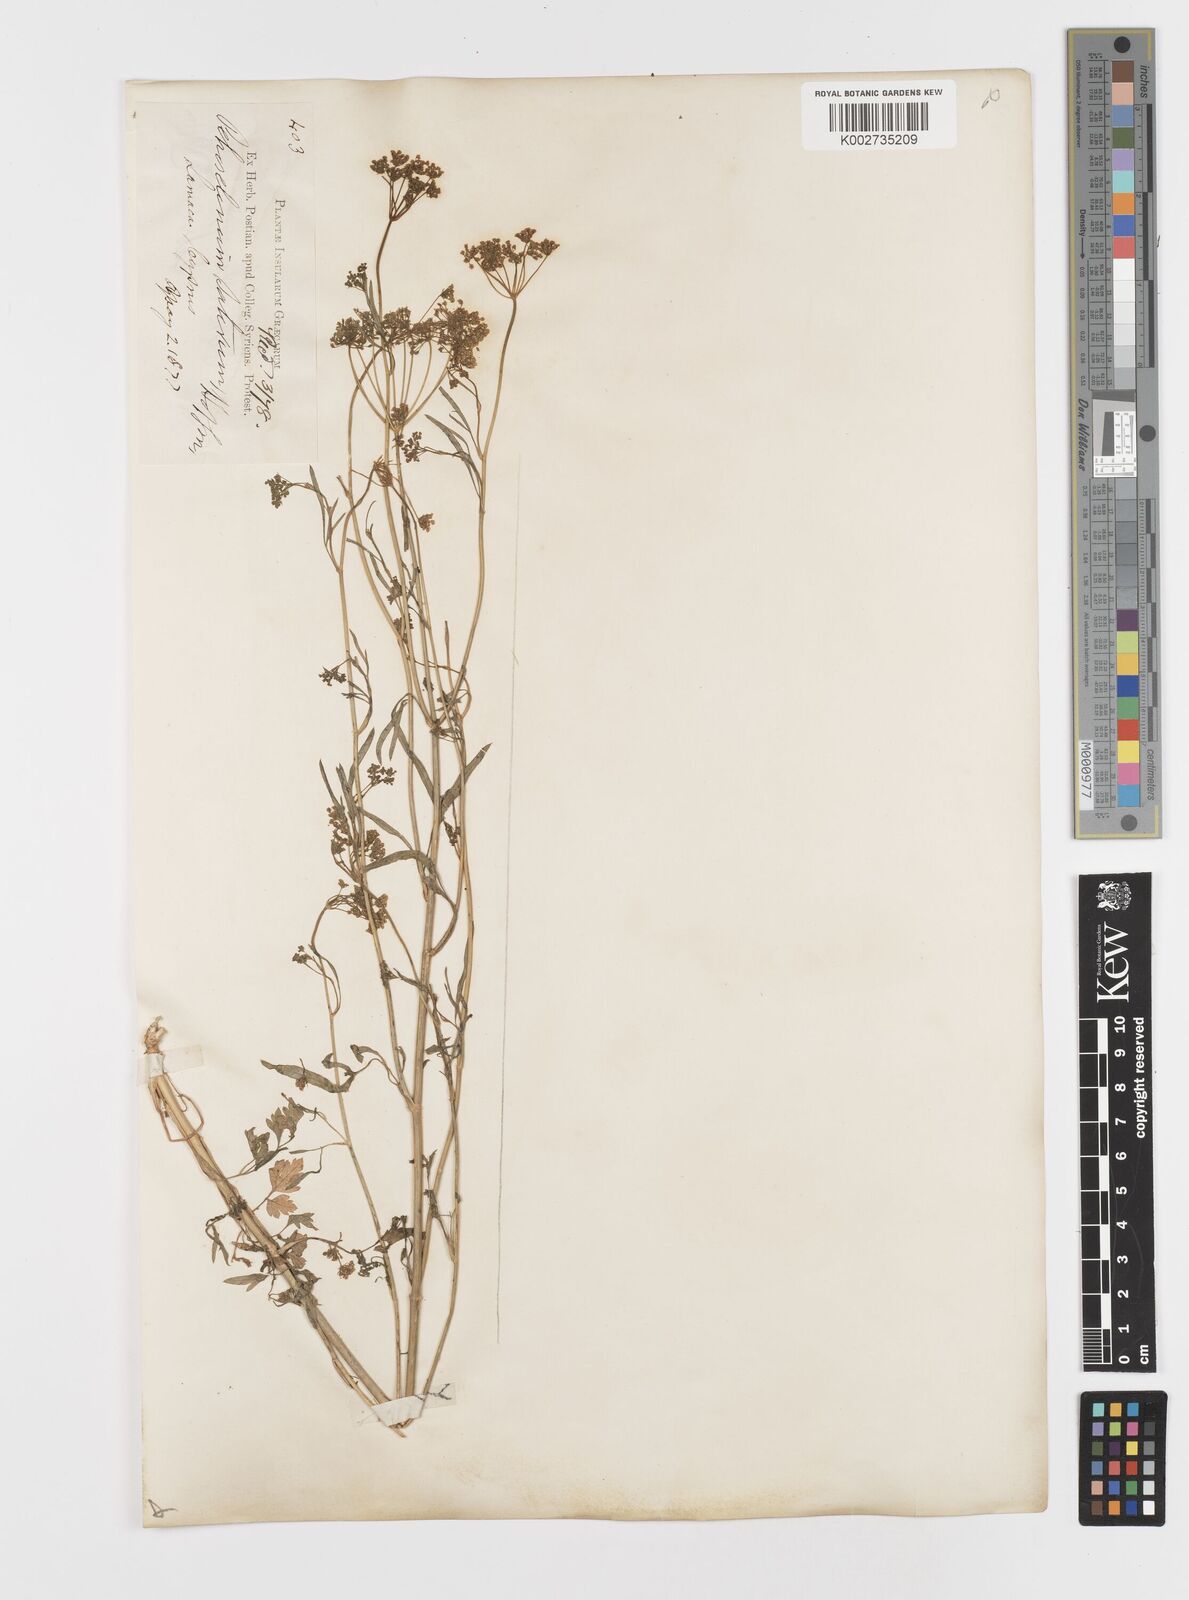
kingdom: Plantae
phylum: Tracheophyta
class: Magnoliopsida
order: Apiales
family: Apiaceae
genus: Petroselinum
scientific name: Petroselinum crispum
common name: Parsley
